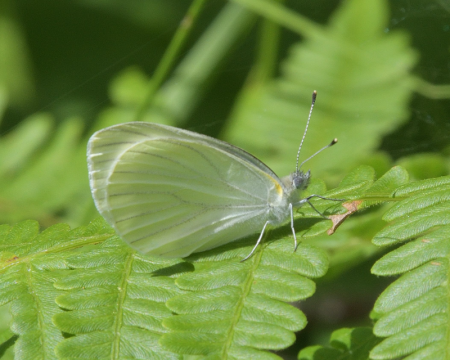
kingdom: Animalia
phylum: Arthropoda
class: Insecta
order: Lepidoptera
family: Pieridae
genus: Pieris
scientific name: Pieris oleracea
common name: Mustard White
